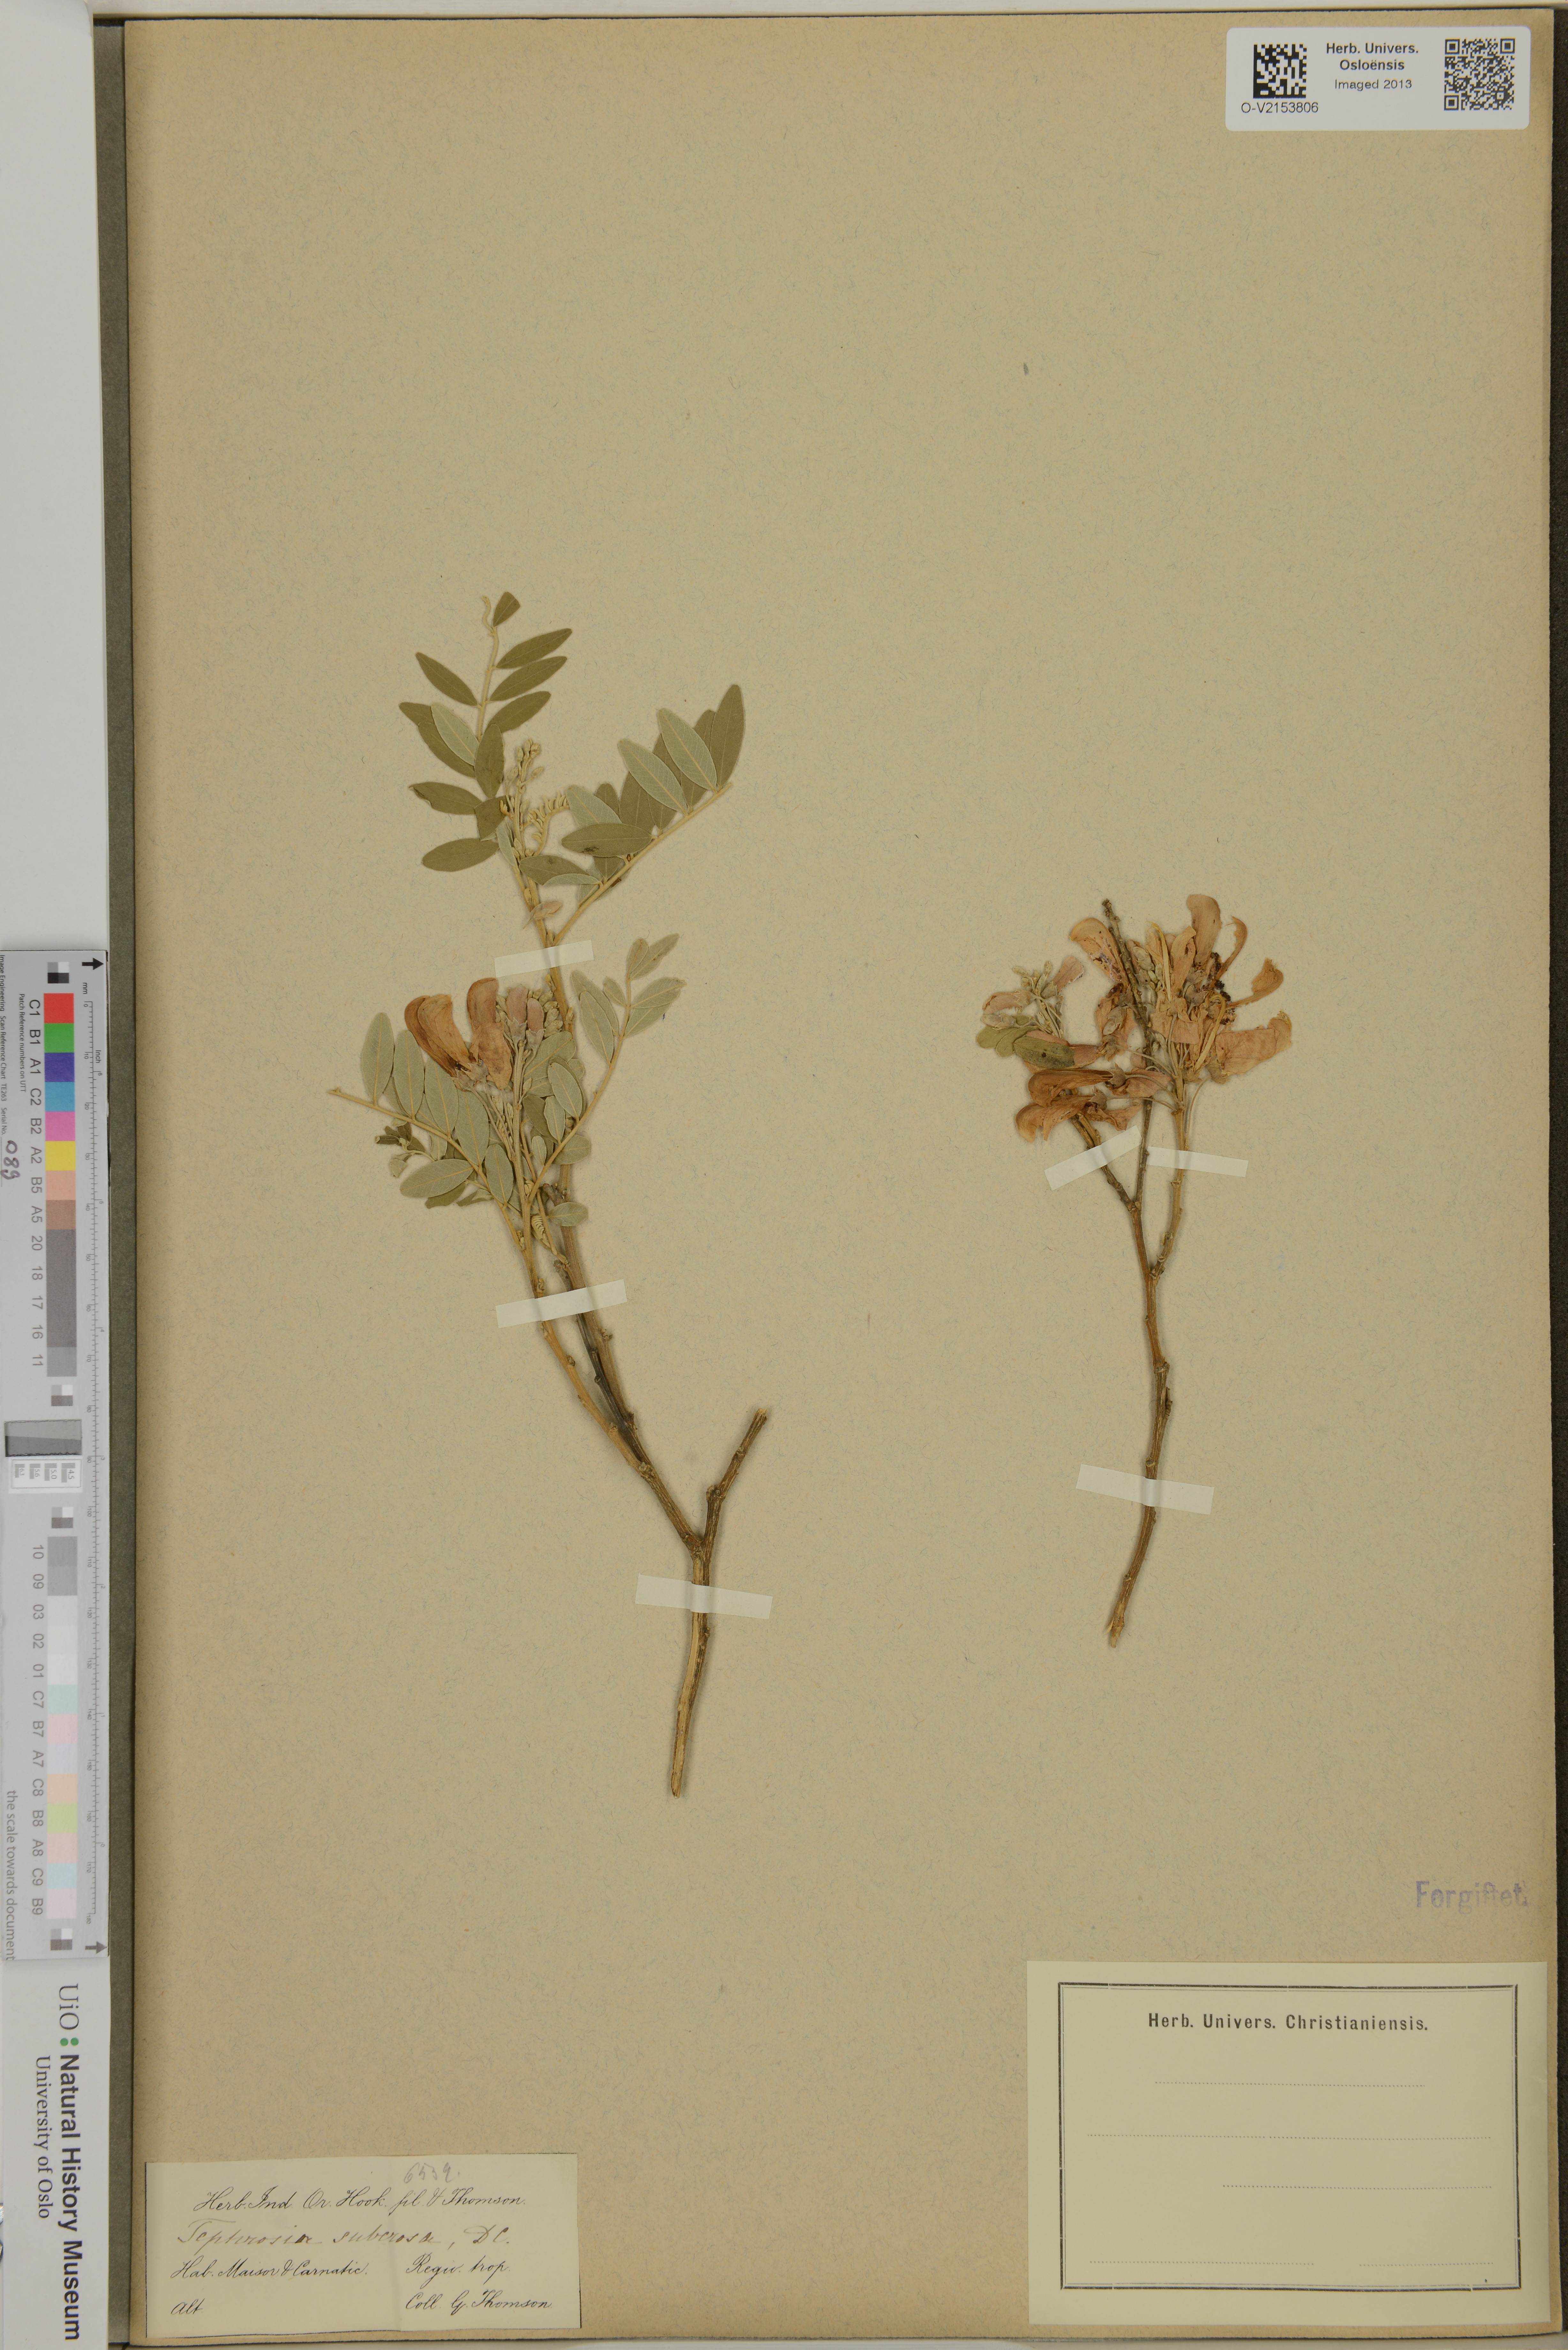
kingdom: Plantae
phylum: Tracheophyta
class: Magnoliopsida
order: Fabales
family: Fabaceae
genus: Mundulea
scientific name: Mundulea sericea
